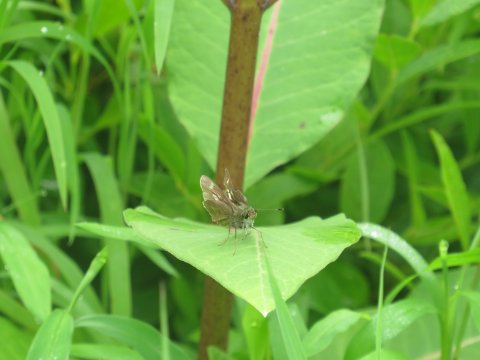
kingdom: Animalia
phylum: Arthropoda
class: Insecta
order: Lepidoptera
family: Hesperiidae
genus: Vernia
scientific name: Vernia verna
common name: Little Glassywing
